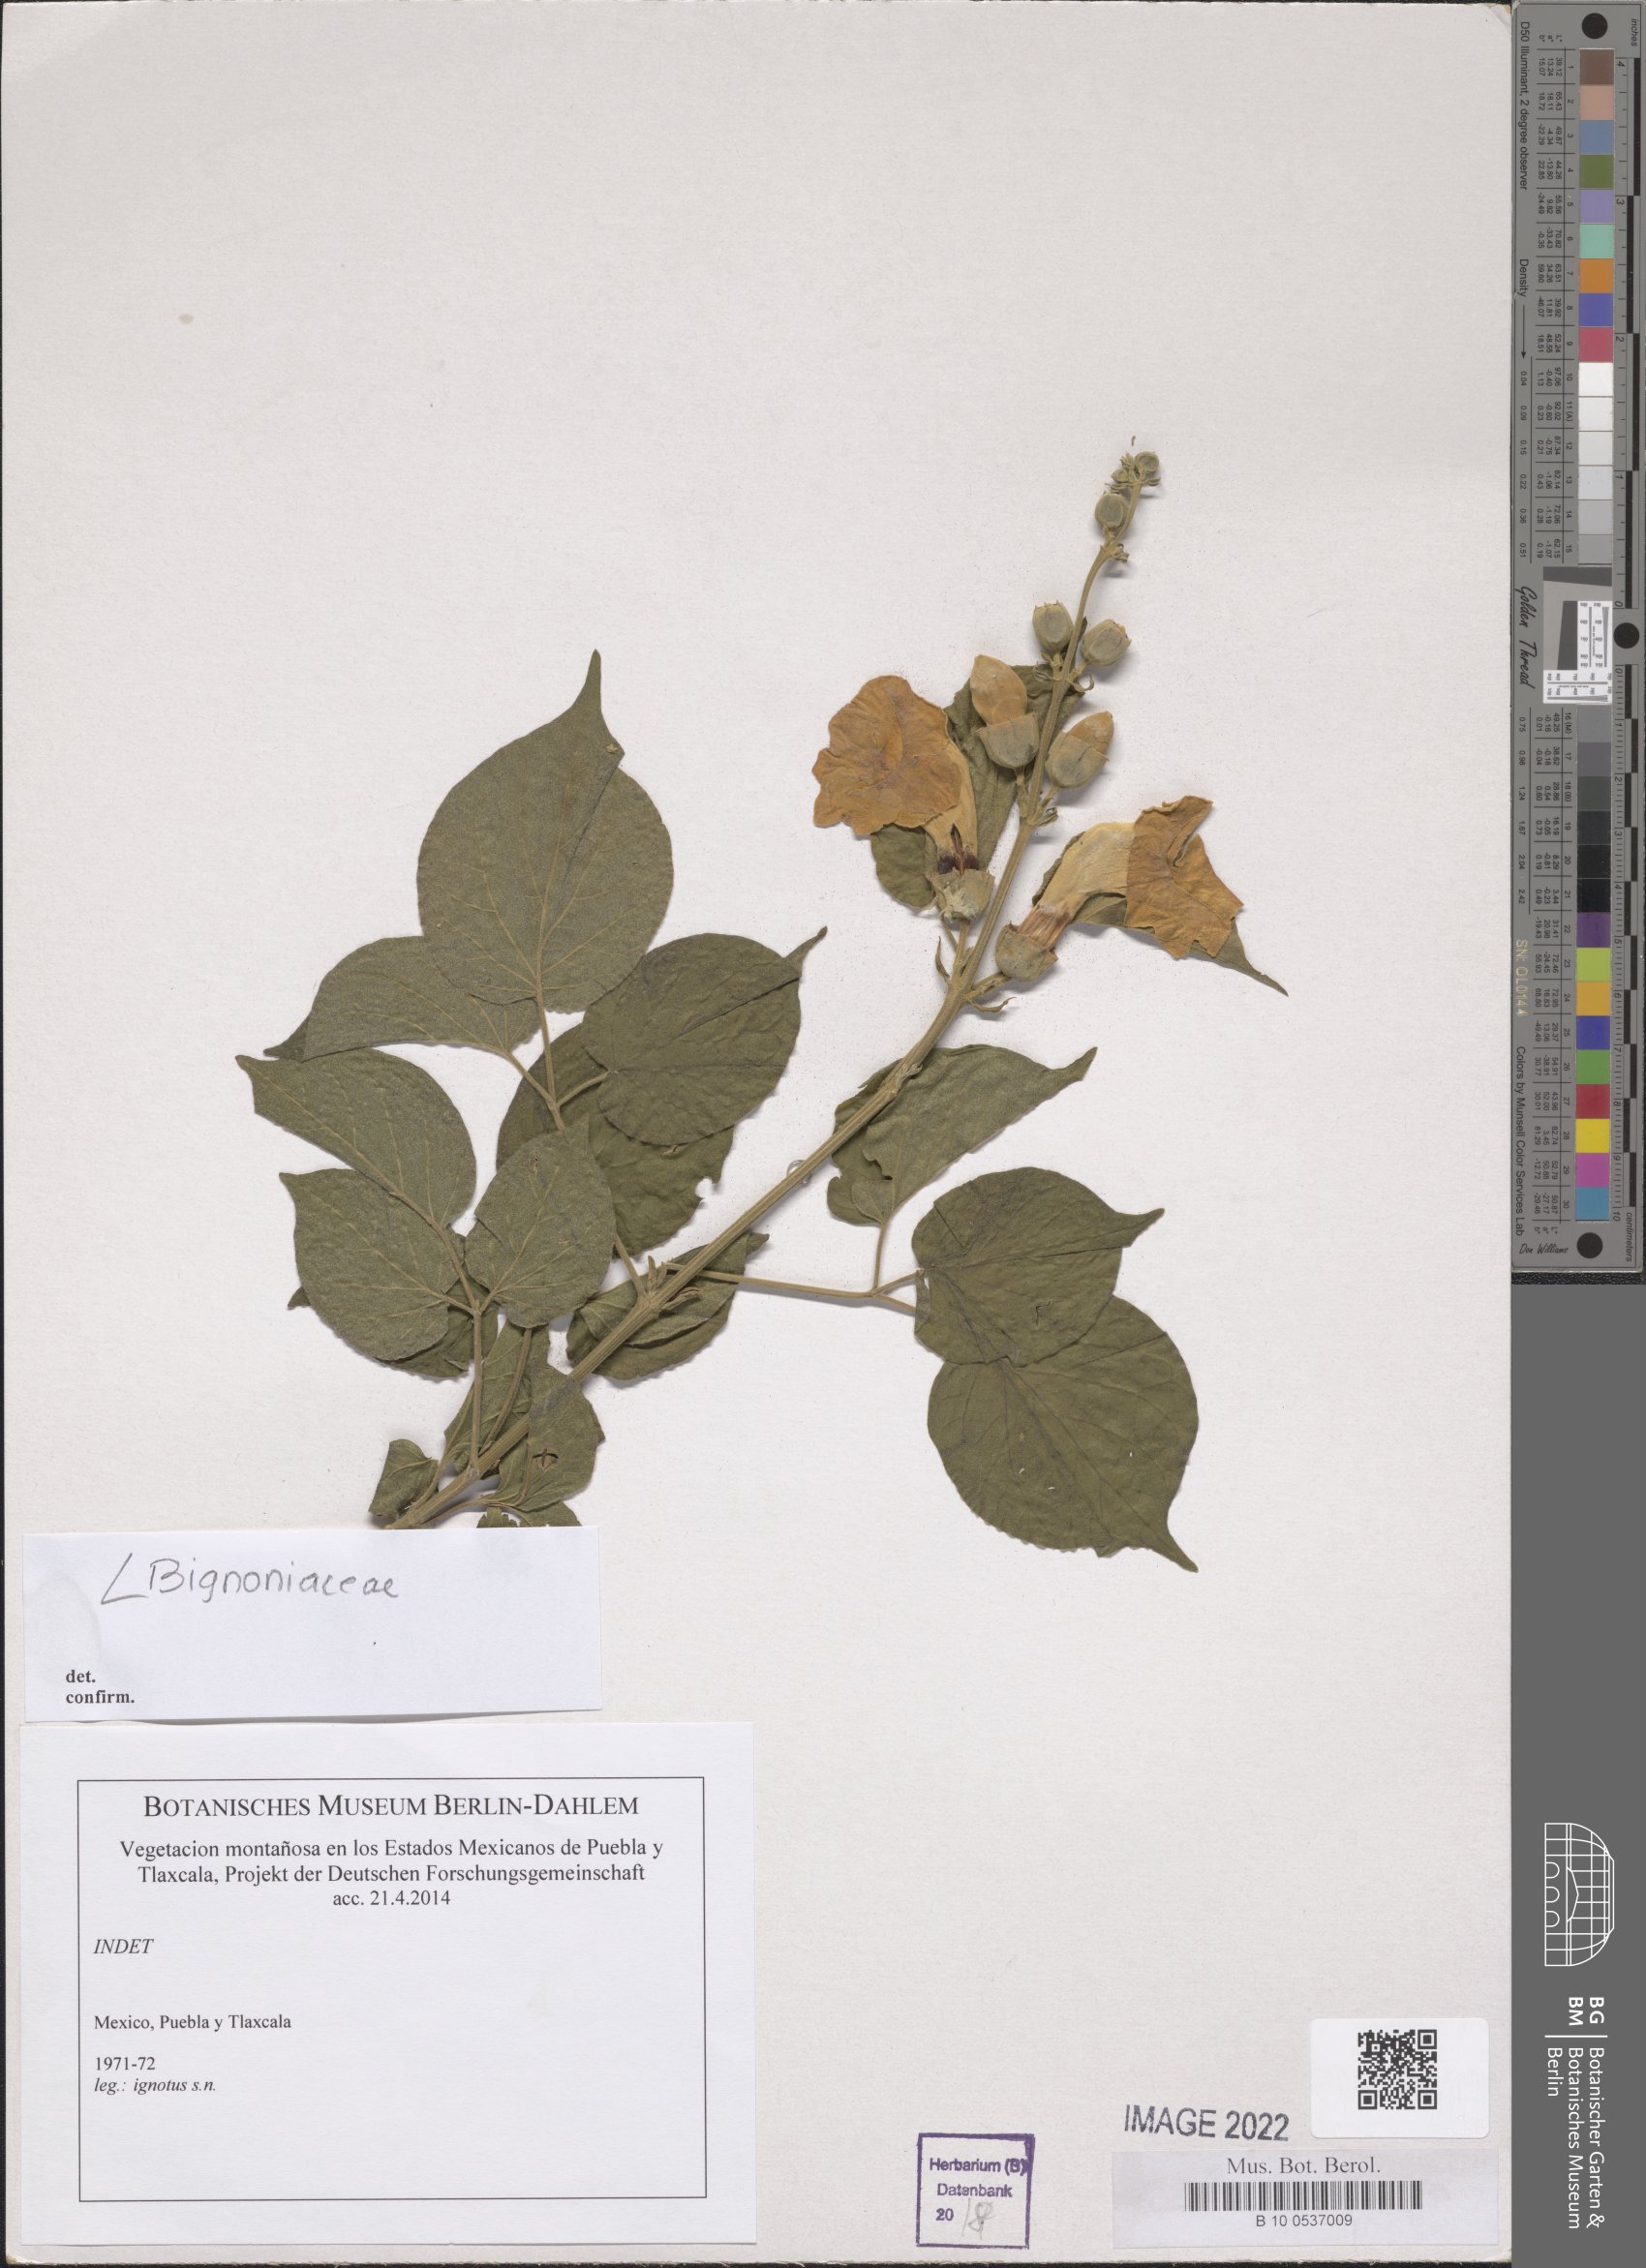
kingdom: Plantae
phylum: Tracheophyta
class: Magnoliopsida
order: Lamiales
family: Bignoniaceae
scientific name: Bignoniaceae
